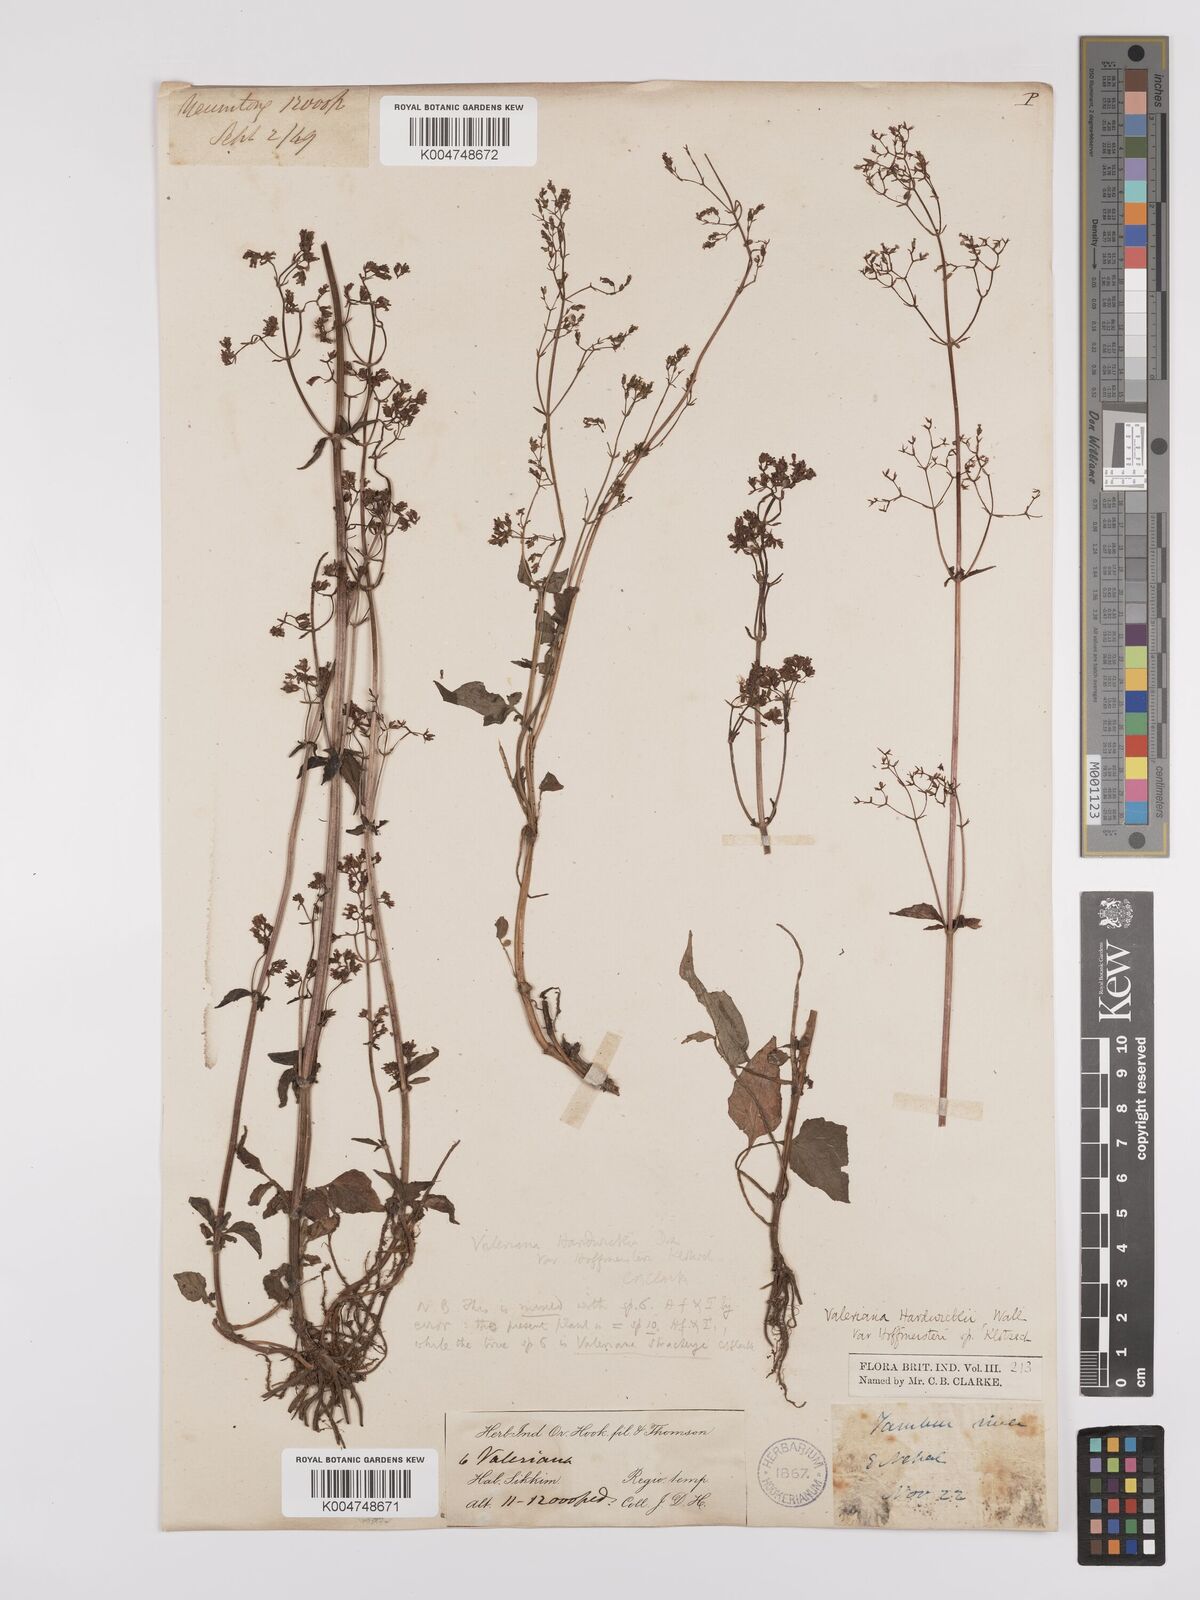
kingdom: Plantae
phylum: Tracheophyta
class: Magnoliopsida
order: Dipsacales
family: Caprifoliaceae
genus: Valeriana
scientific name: Valeriana hardwickei
